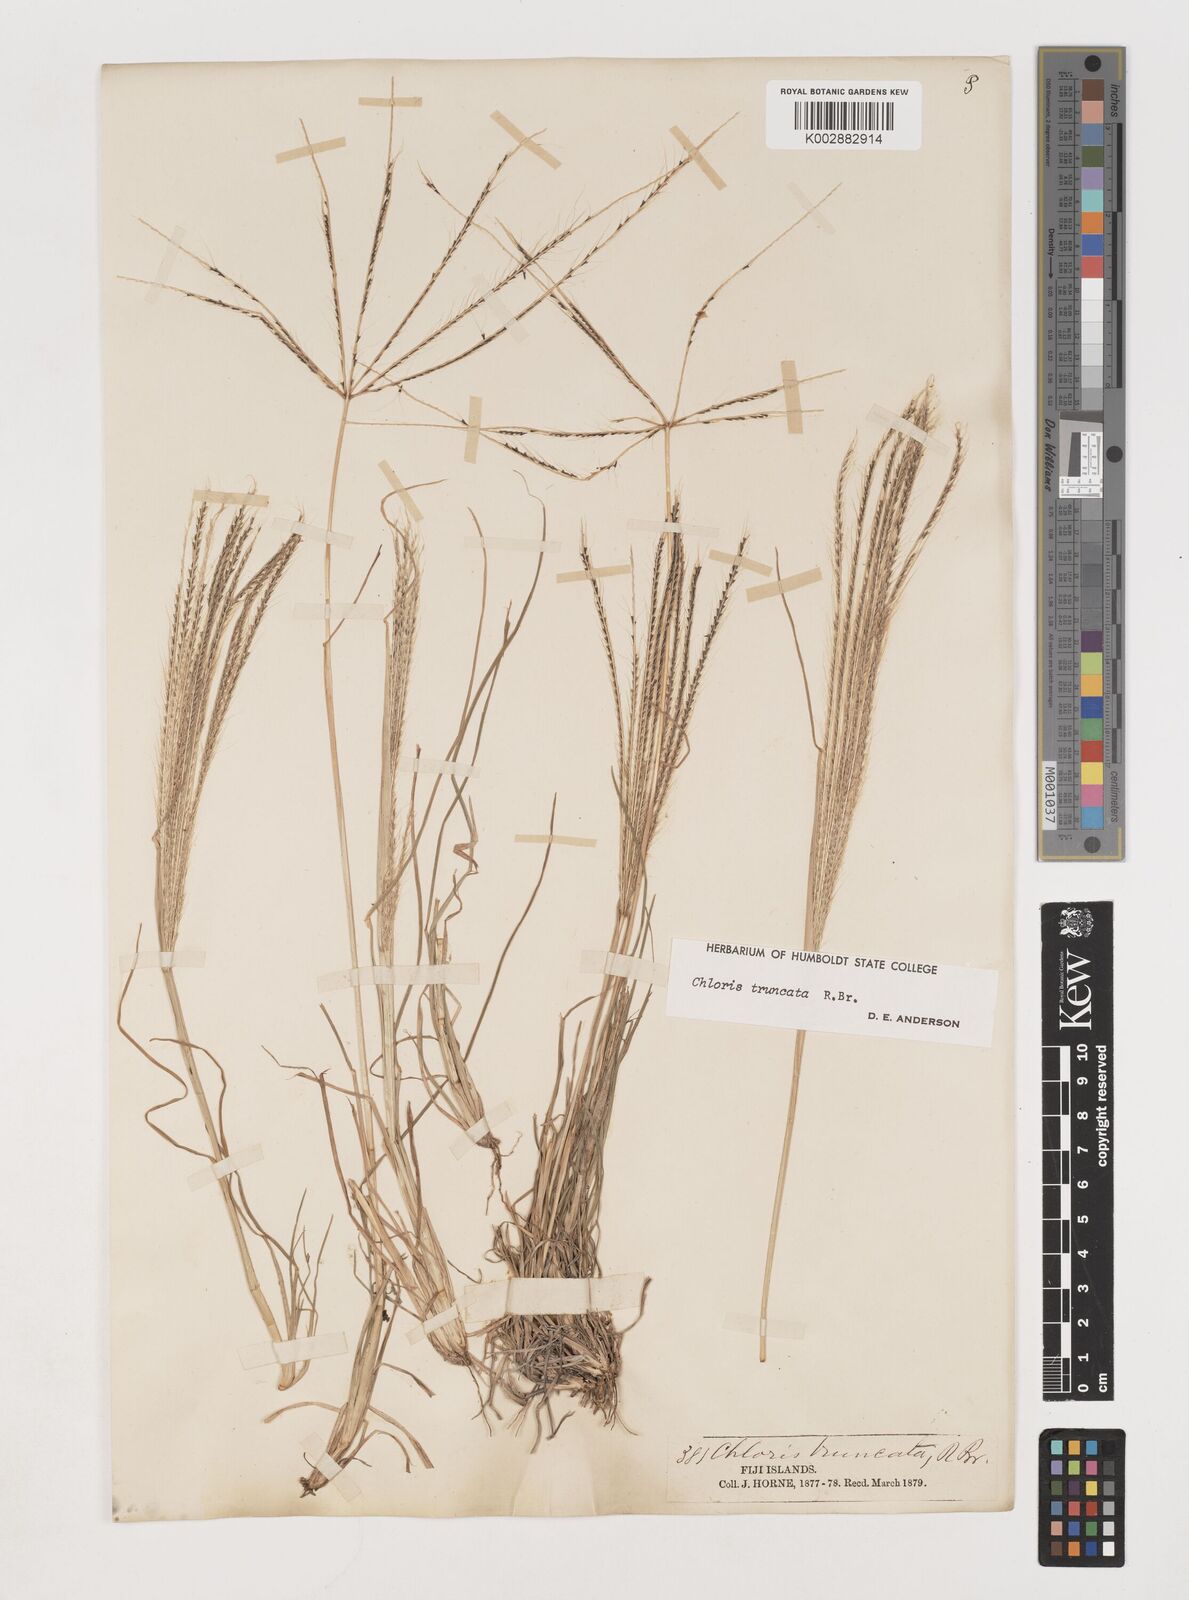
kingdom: Plantae
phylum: Tracheophyta
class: Liliopsida
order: Poales
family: Poaceae
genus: Chloris
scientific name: Chloris truncata
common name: Windmill-grass
